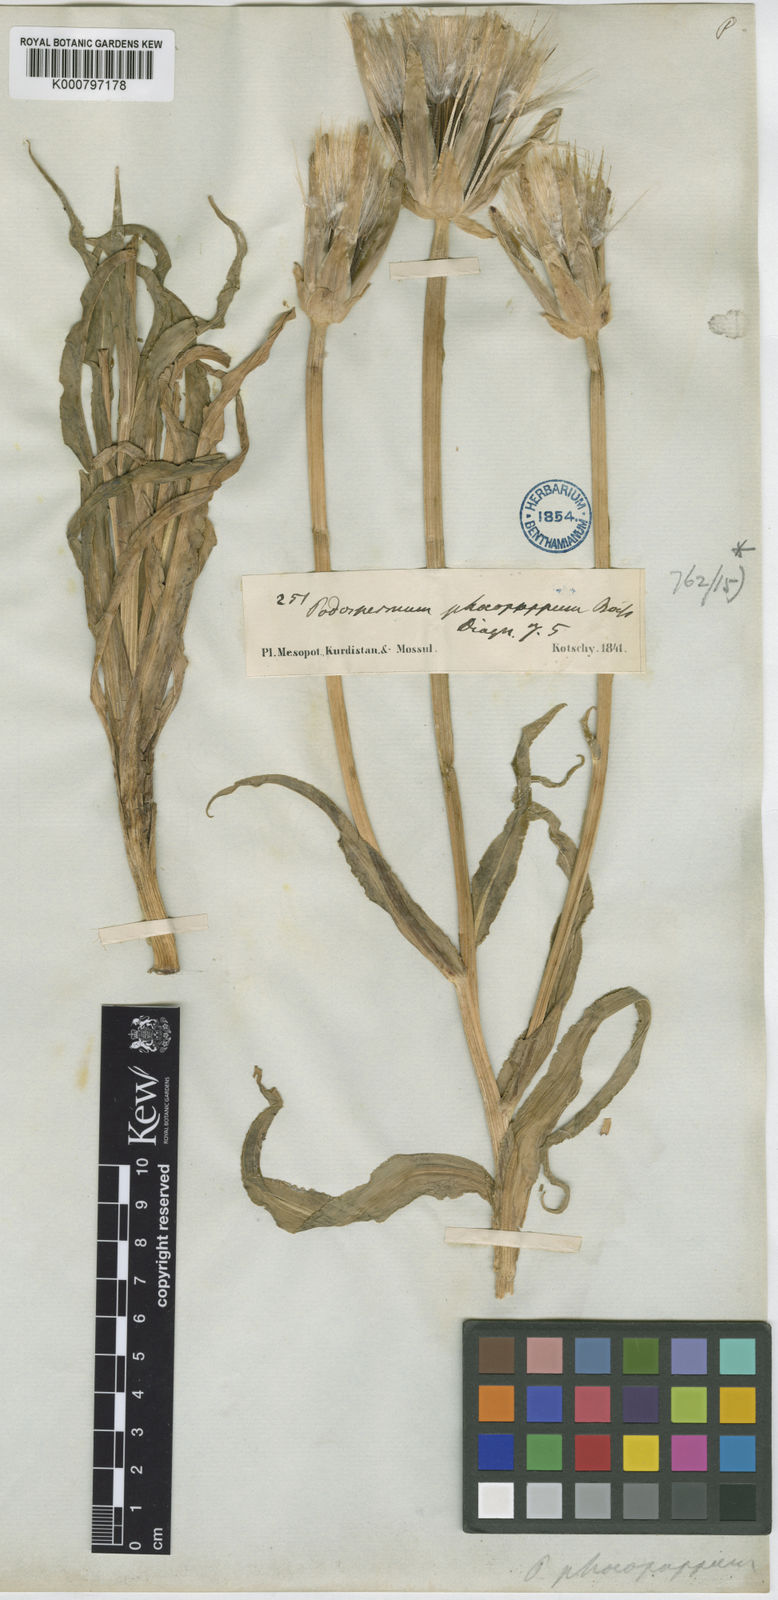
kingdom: Plantae
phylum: Tracheophyta
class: Magnoliopsida
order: Asterales
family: Asteraceae
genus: Pseudopodospermum
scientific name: Pseudopodospermum phaeopappum
